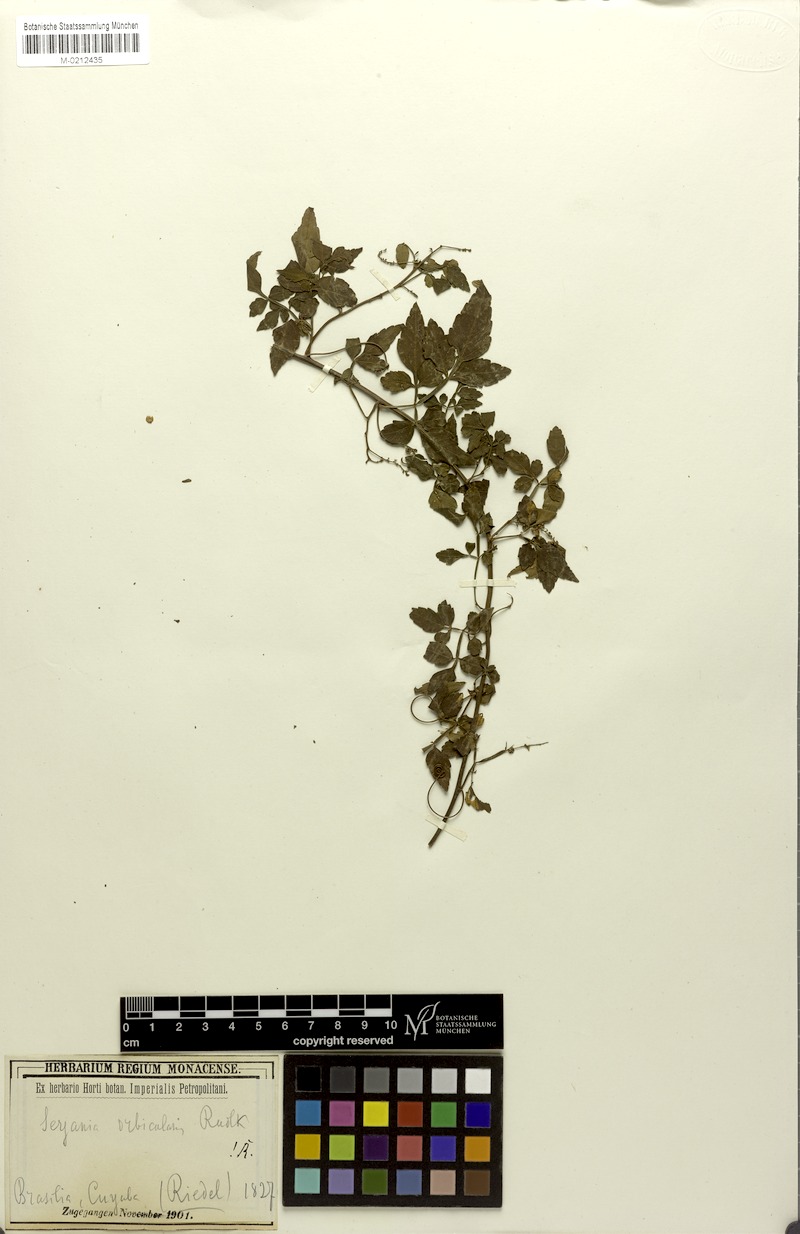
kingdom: Plantae
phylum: Tracheophyta
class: Magnoliopsida
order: Sapindales
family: Sapindaceae
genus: Serjania
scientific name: Serjania orbicularis
